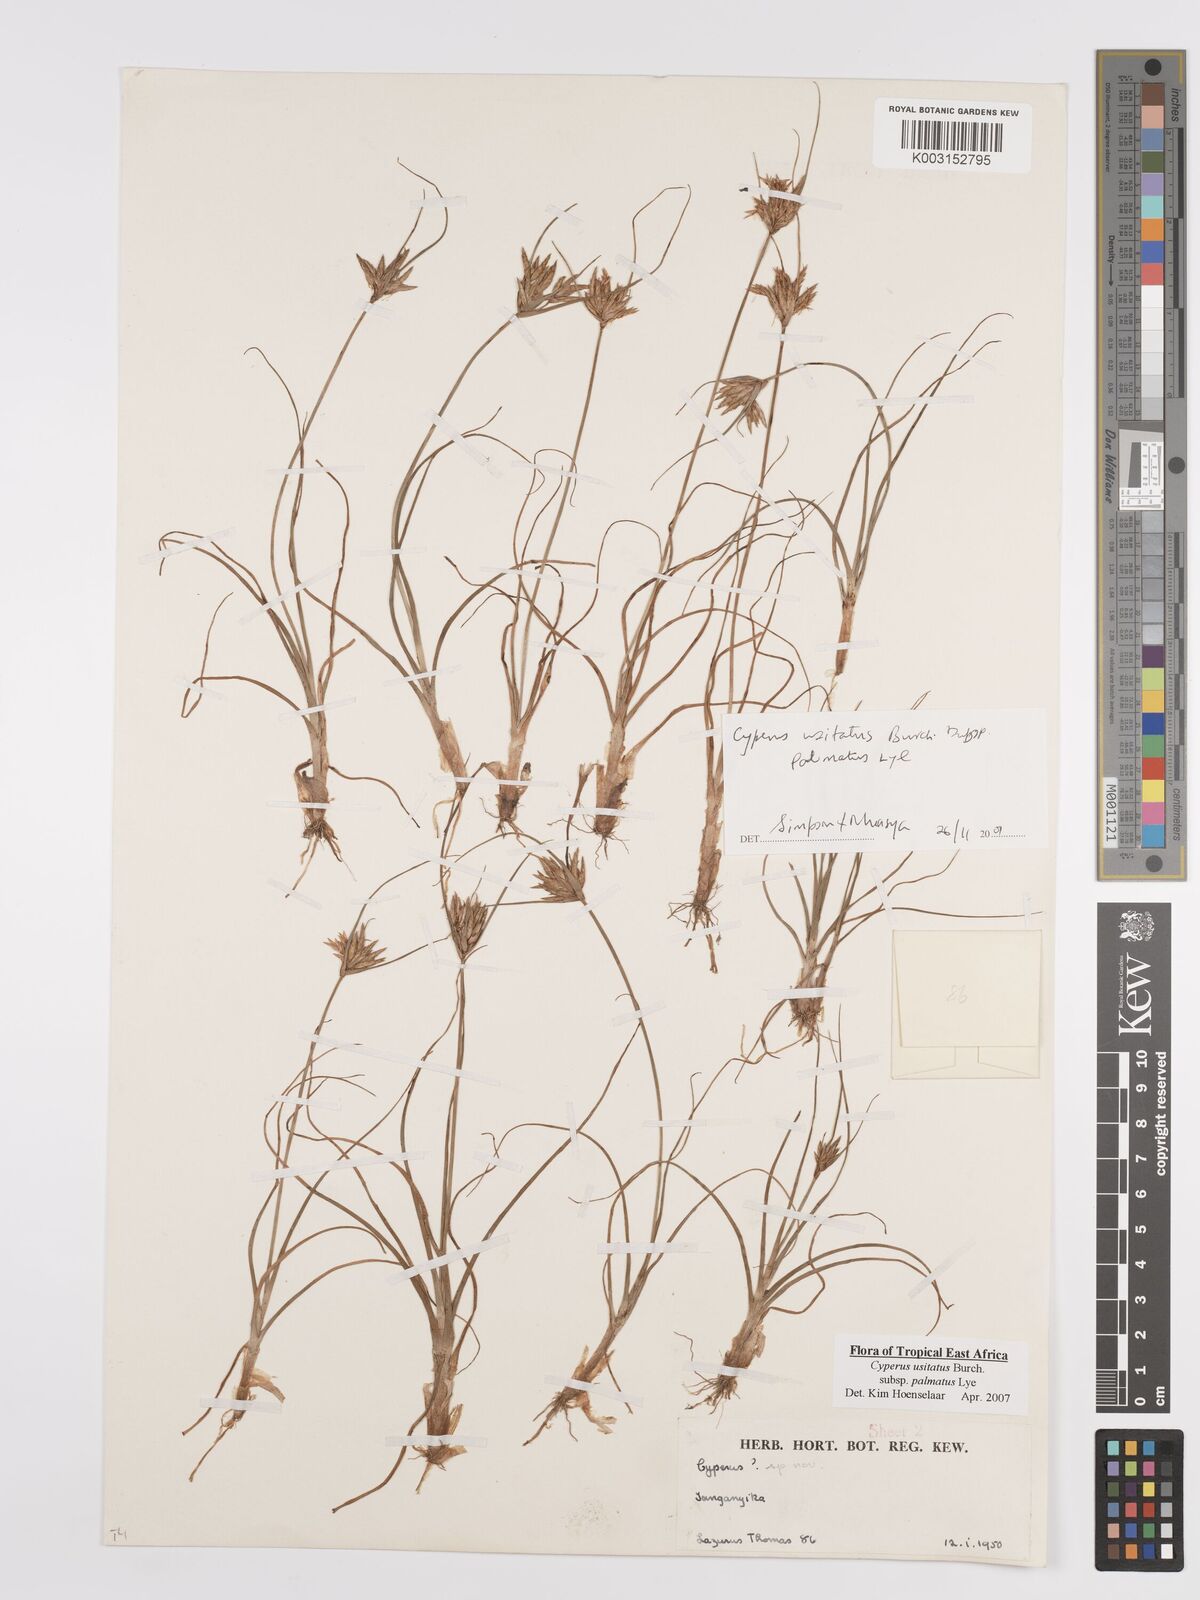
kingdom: Plantae
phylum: Tracheophyta
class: Liliopsida
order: Poales
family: Cyperaceae
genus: Cyperus
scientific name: Cyperus palmatus
